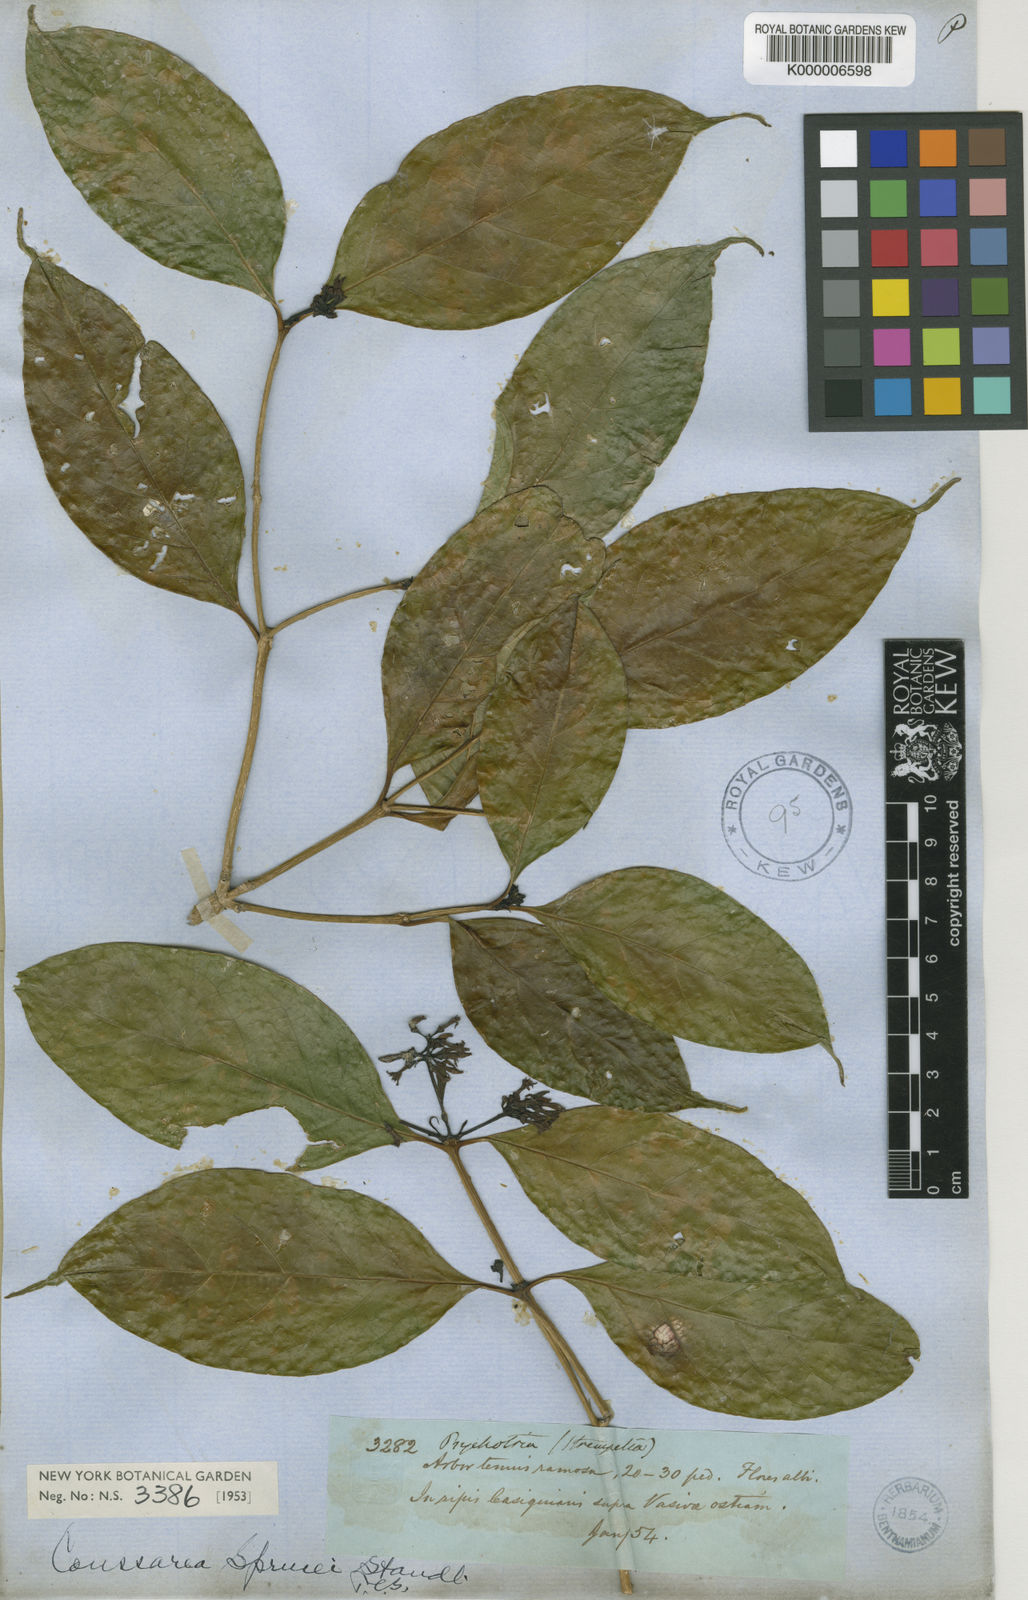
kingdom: Plantae
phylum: Tracheophyta
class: Magnoliopsida
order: Gentianales
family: Rubiaceae
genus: Coussarea
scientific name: Coussarea violacea
